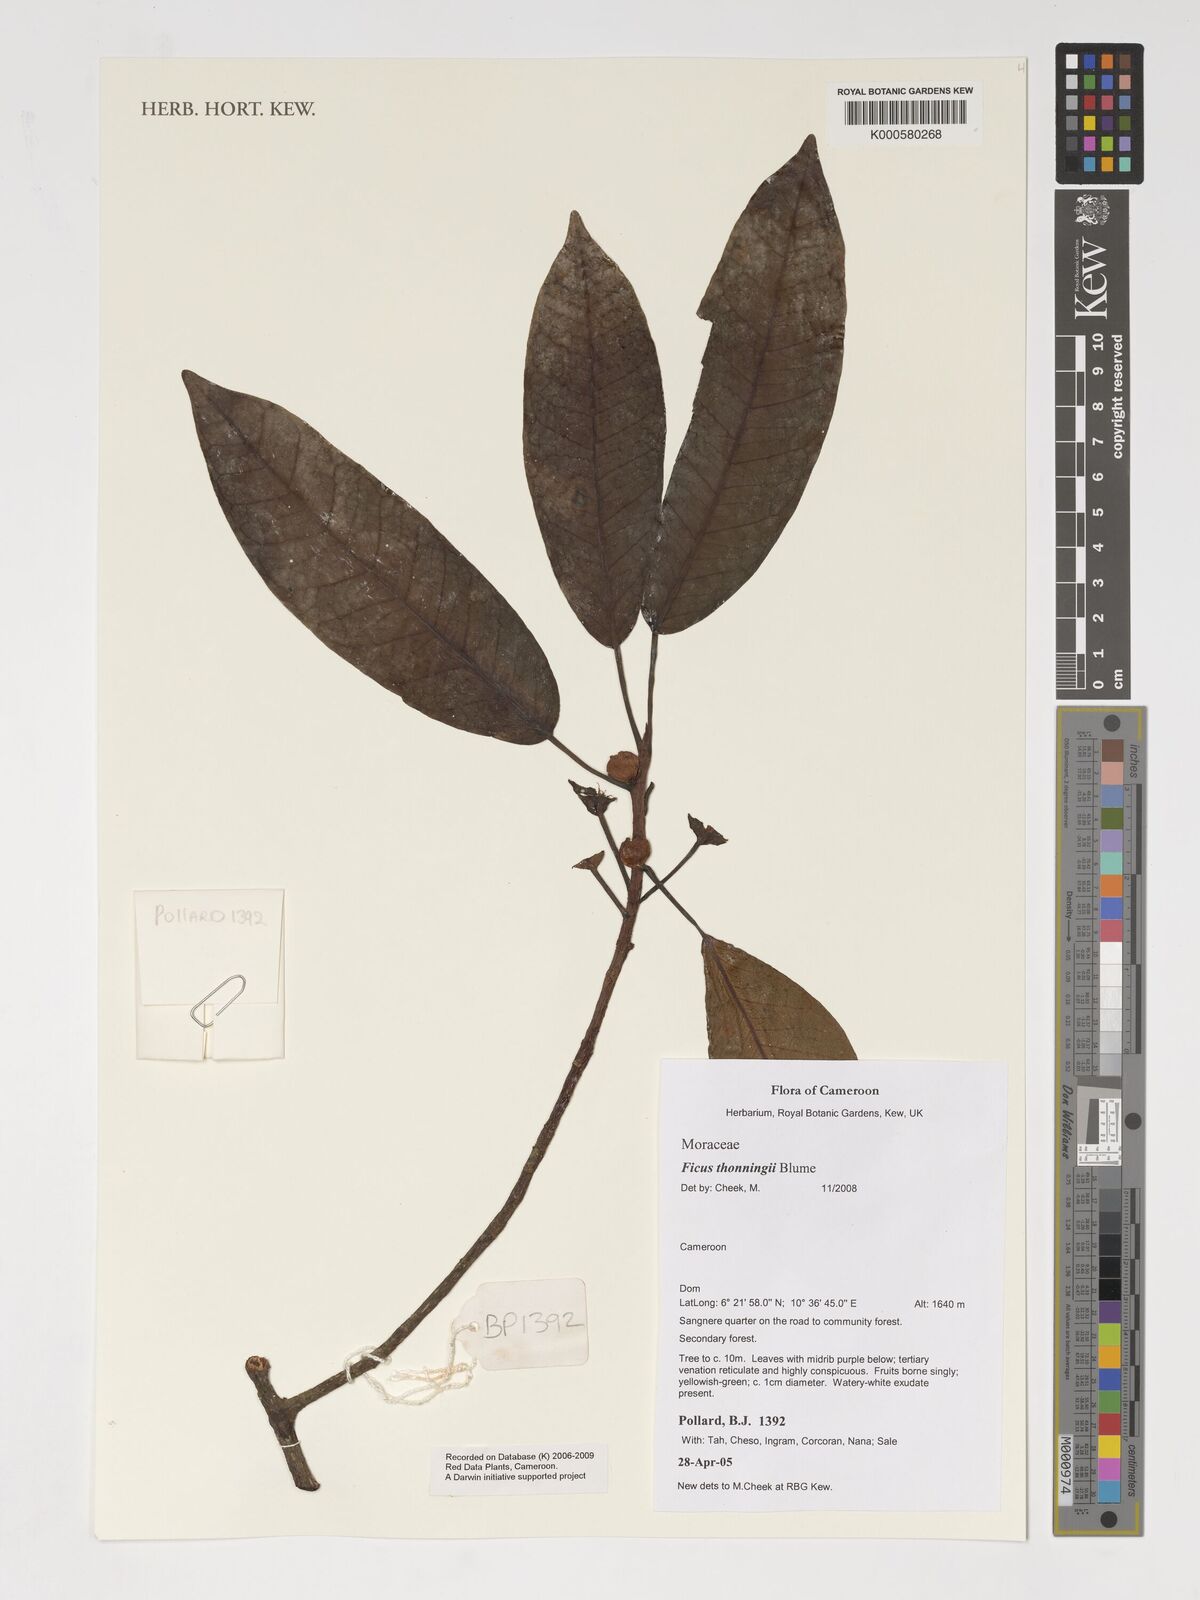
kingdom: Plantae
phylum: Tracheophyta
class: Magnoliopsida
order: Rosales
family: Moraceae
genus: Ficus
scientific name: Ficus thonningii
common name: Fig
